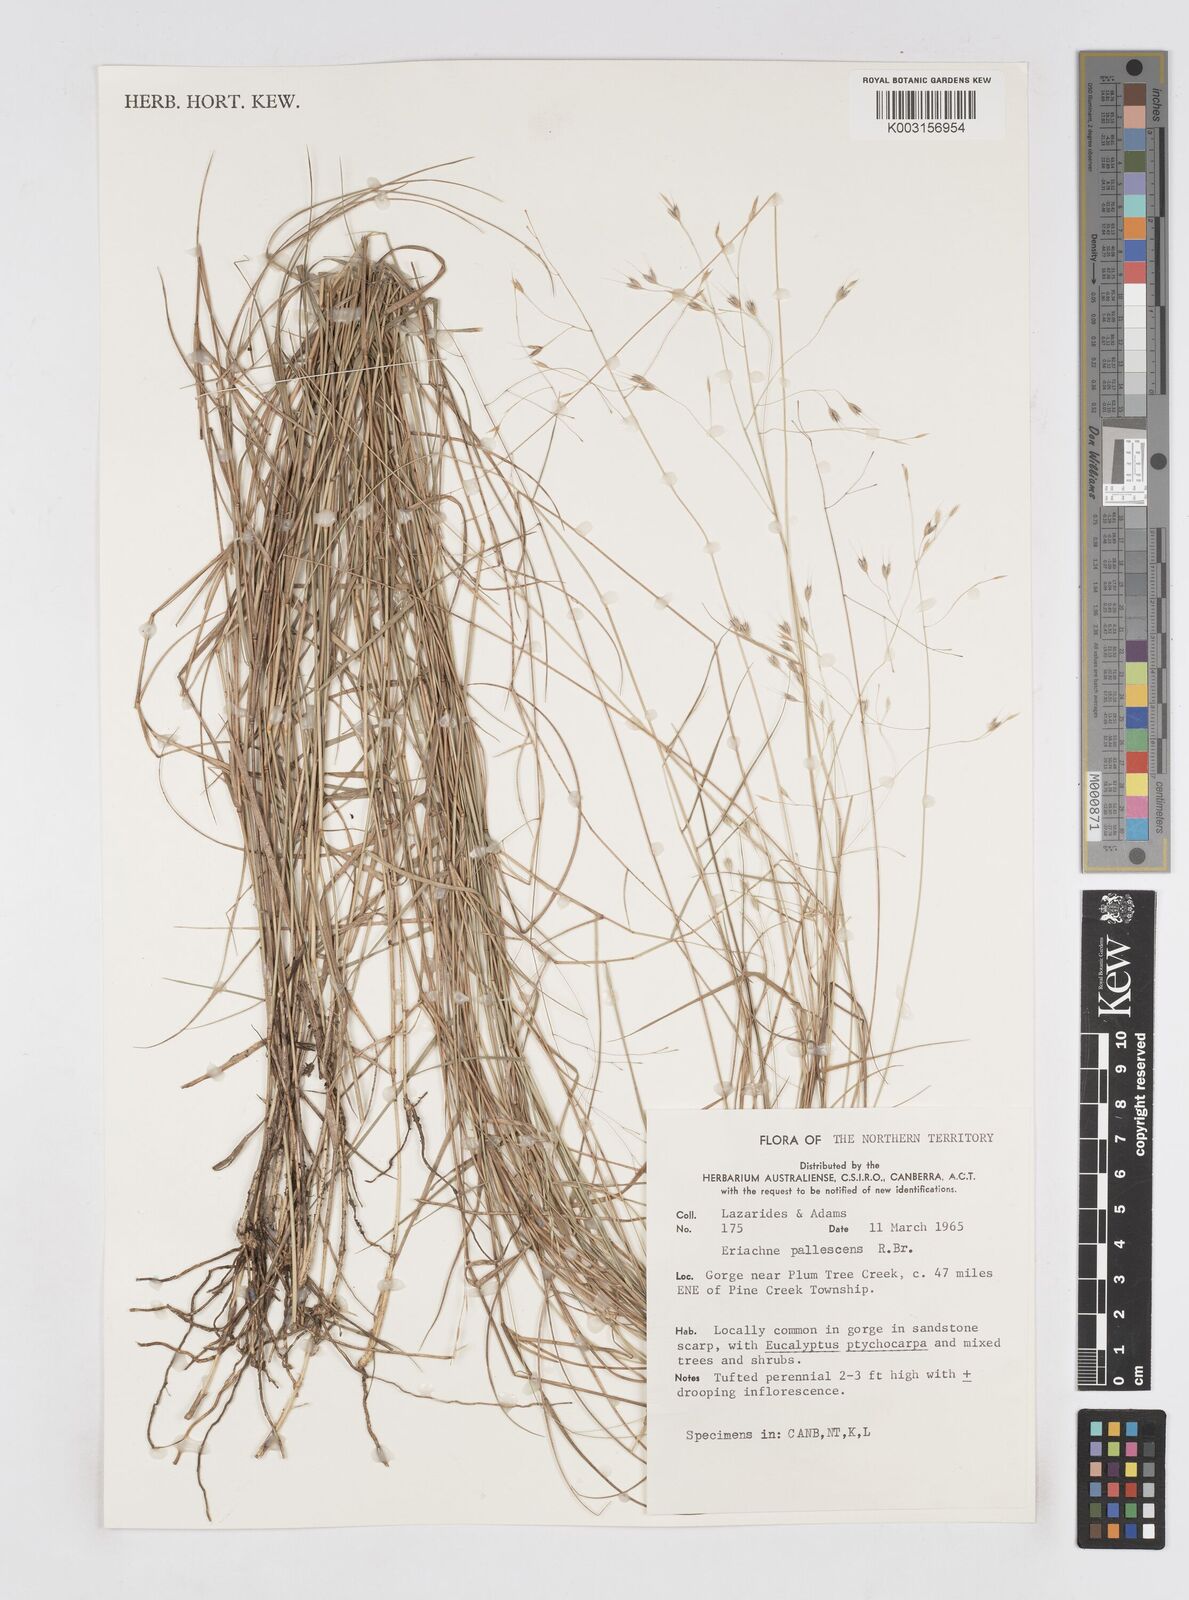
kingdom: Plantae
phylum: Tracheophyta
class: Liliopsida
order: Poales
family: Poaceae
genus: Eriachne
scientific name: Eriachne pallescens
